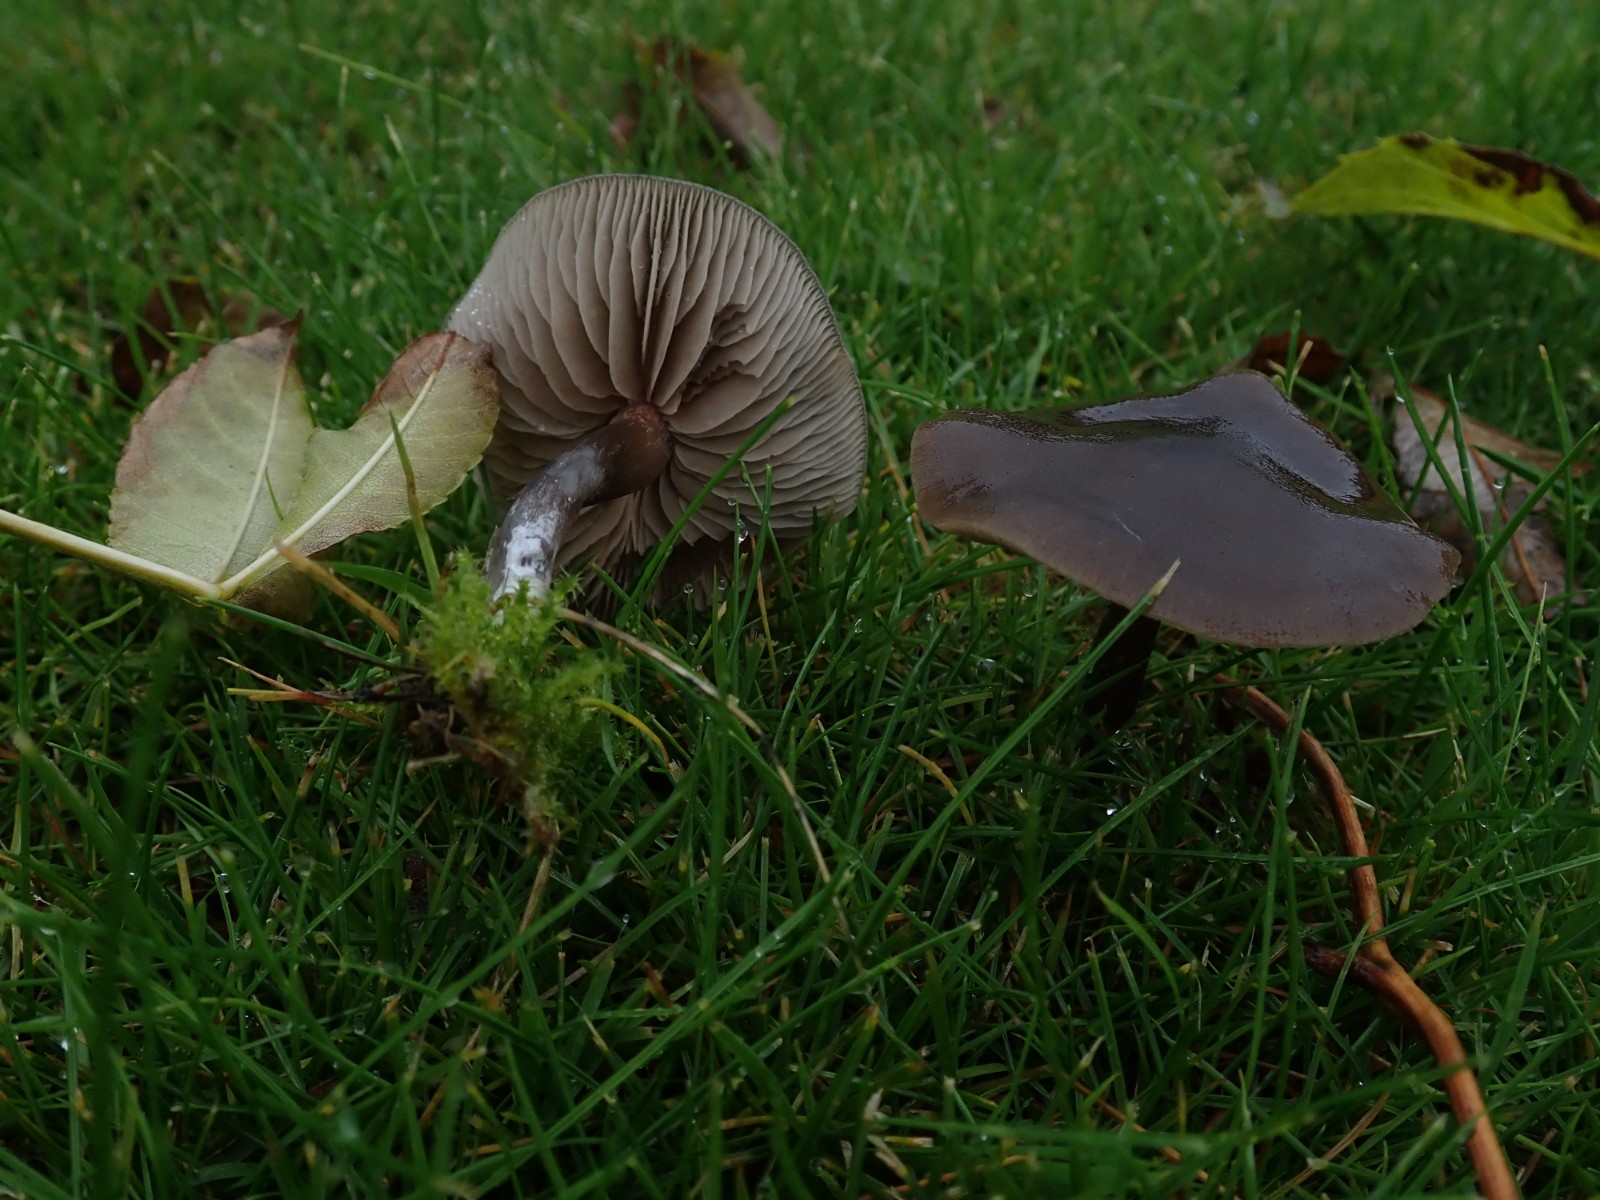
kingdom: Fungi
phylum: Basidiomycota
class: Agaricomycetes
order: Agaricales
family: Entolomataceae
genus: Entoloma
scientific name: Entoloma sericeum
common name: silkeglinsende rødblad
